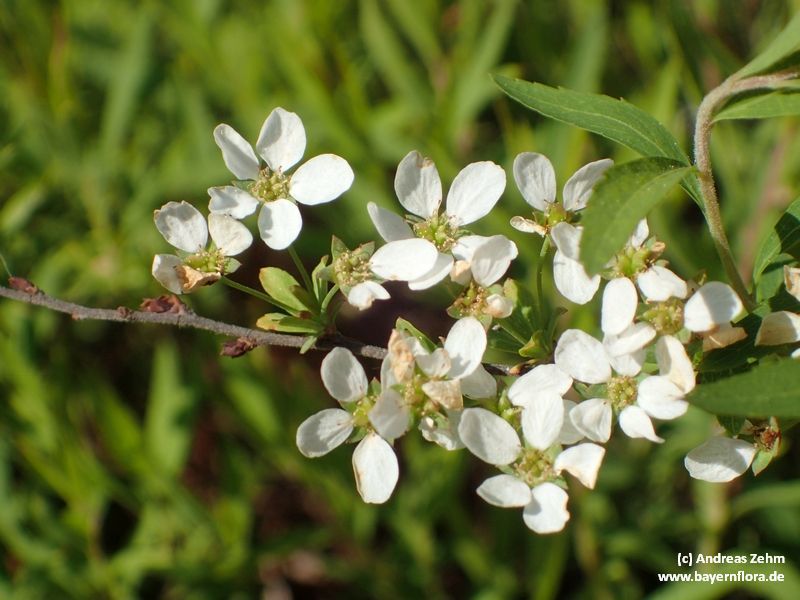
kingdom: Plantae
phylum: Tracheophyta
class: Magnoliopsida
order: Rosales
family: Rosaceae
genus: Spiraea
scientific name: Spiraea arguta
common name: Garland spiraea
